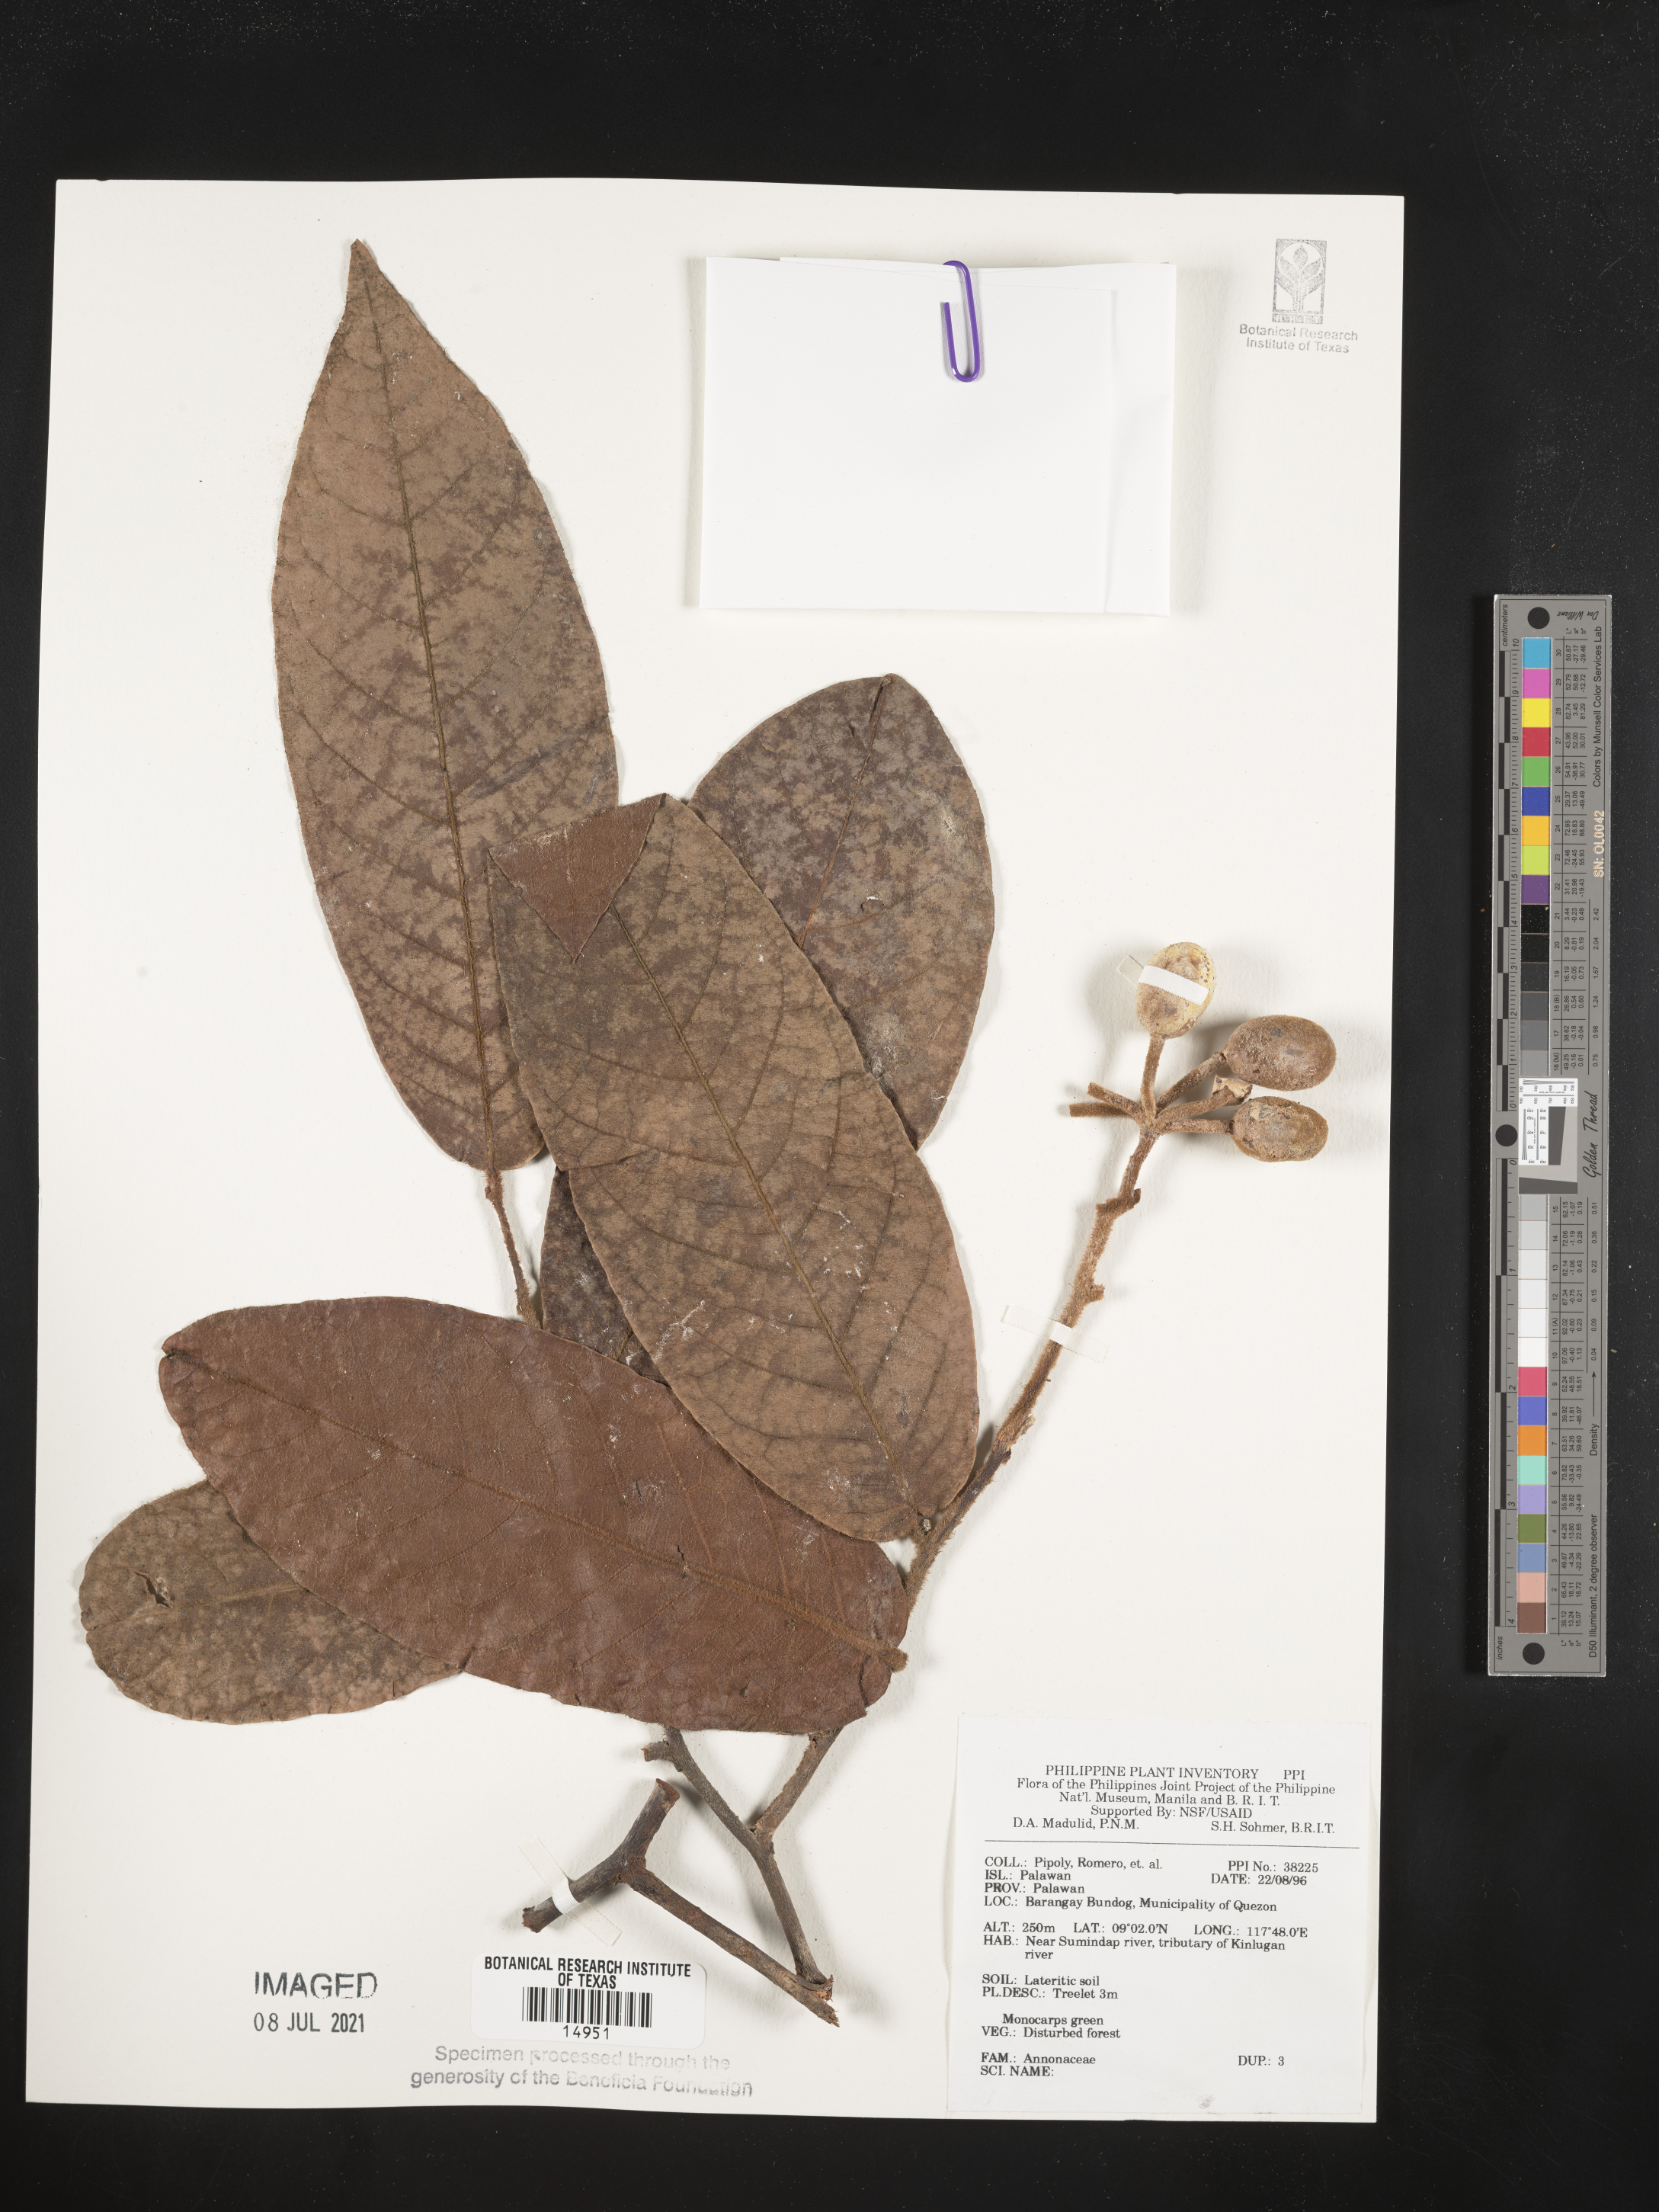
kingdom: Plantae
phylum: Tracheophyta
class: Magnoliopsida
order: Magnoliales
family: Annonaceae
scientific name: Annonaceae
